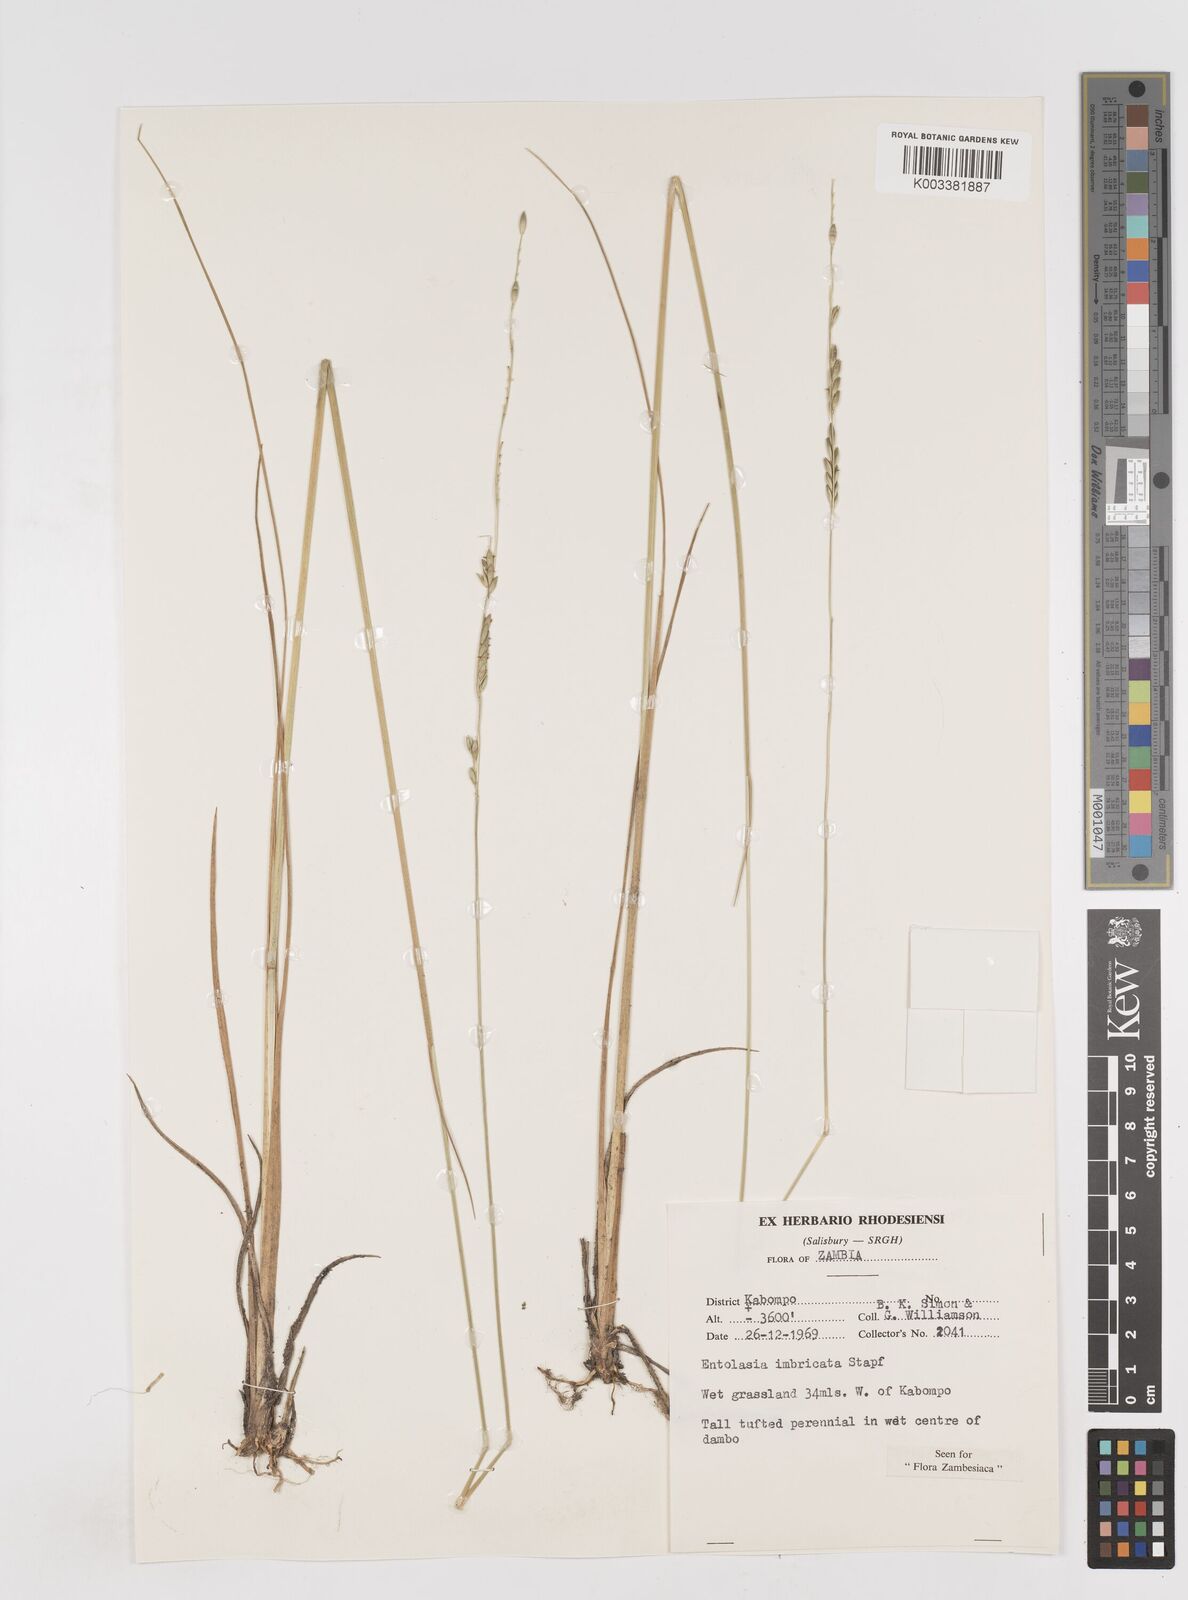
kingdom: Plantae
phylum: Tracheophyta
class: Liliopsida
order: Poales
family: Poaceae
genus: Entolasia
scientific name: Entolasia imbricata
